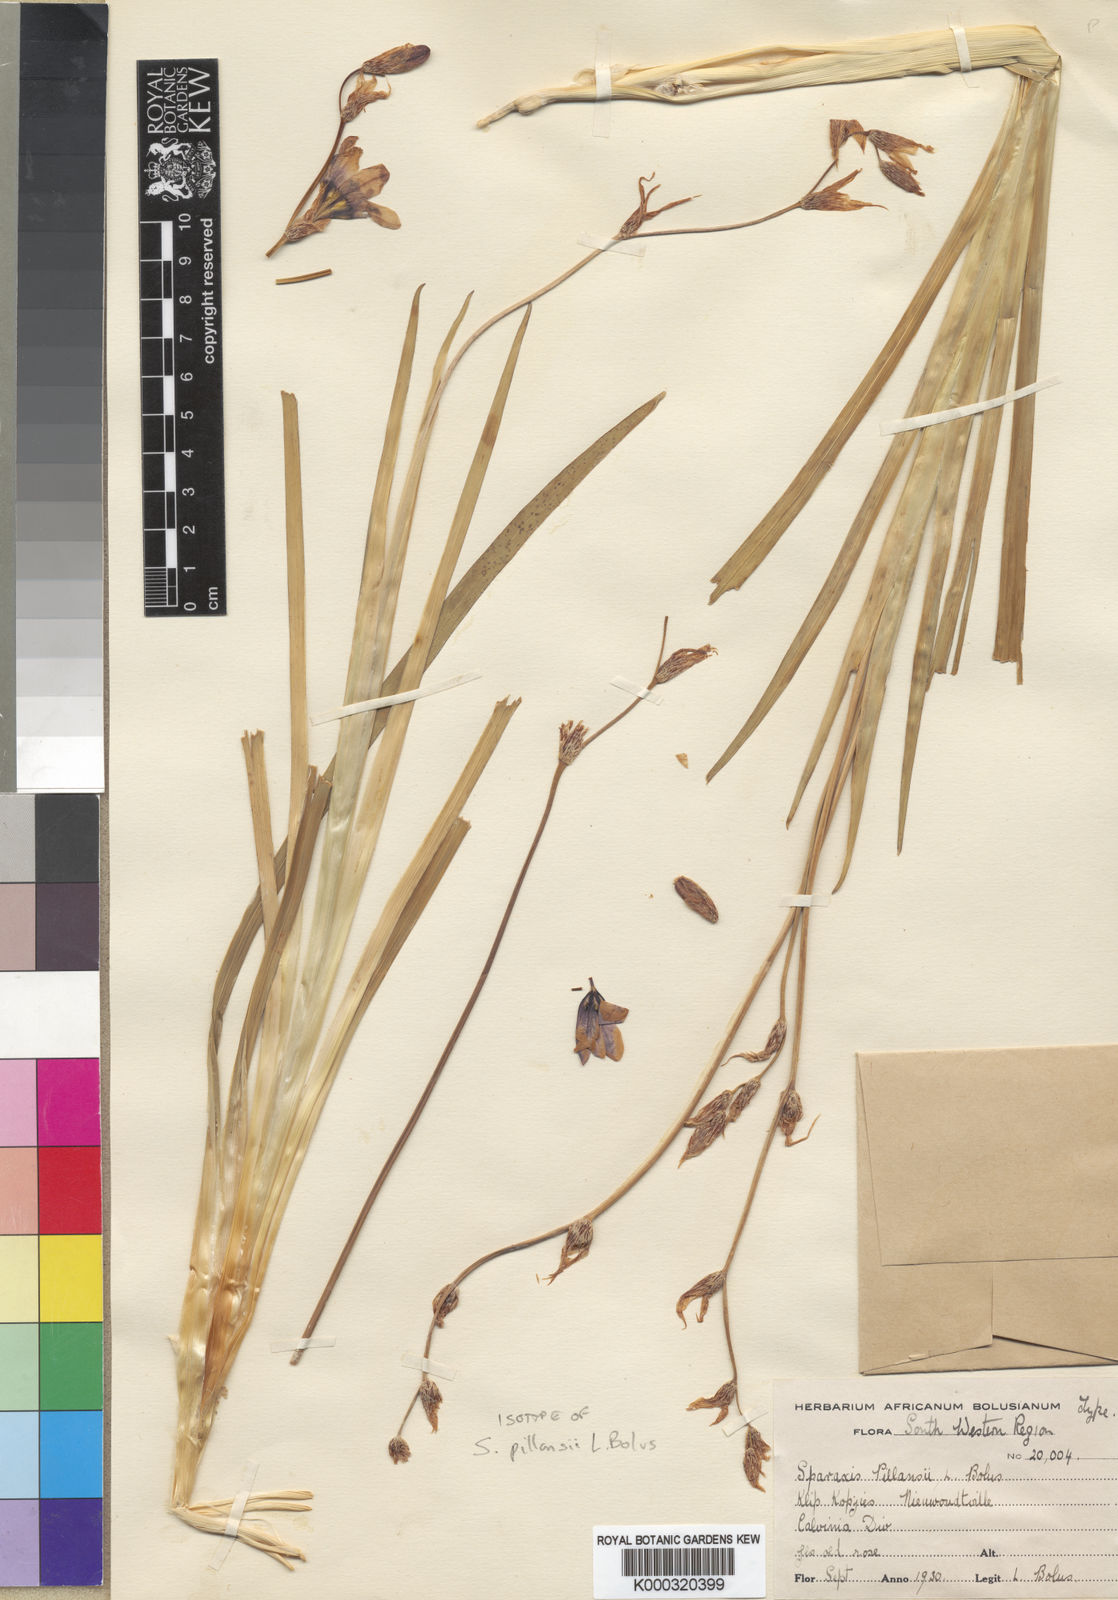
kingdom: Plantae
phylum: Tracheophyta
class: Liliopsida
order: Asparagales
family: Iridaceae
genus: Sparaxis
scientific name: Sparaxis pillansii
